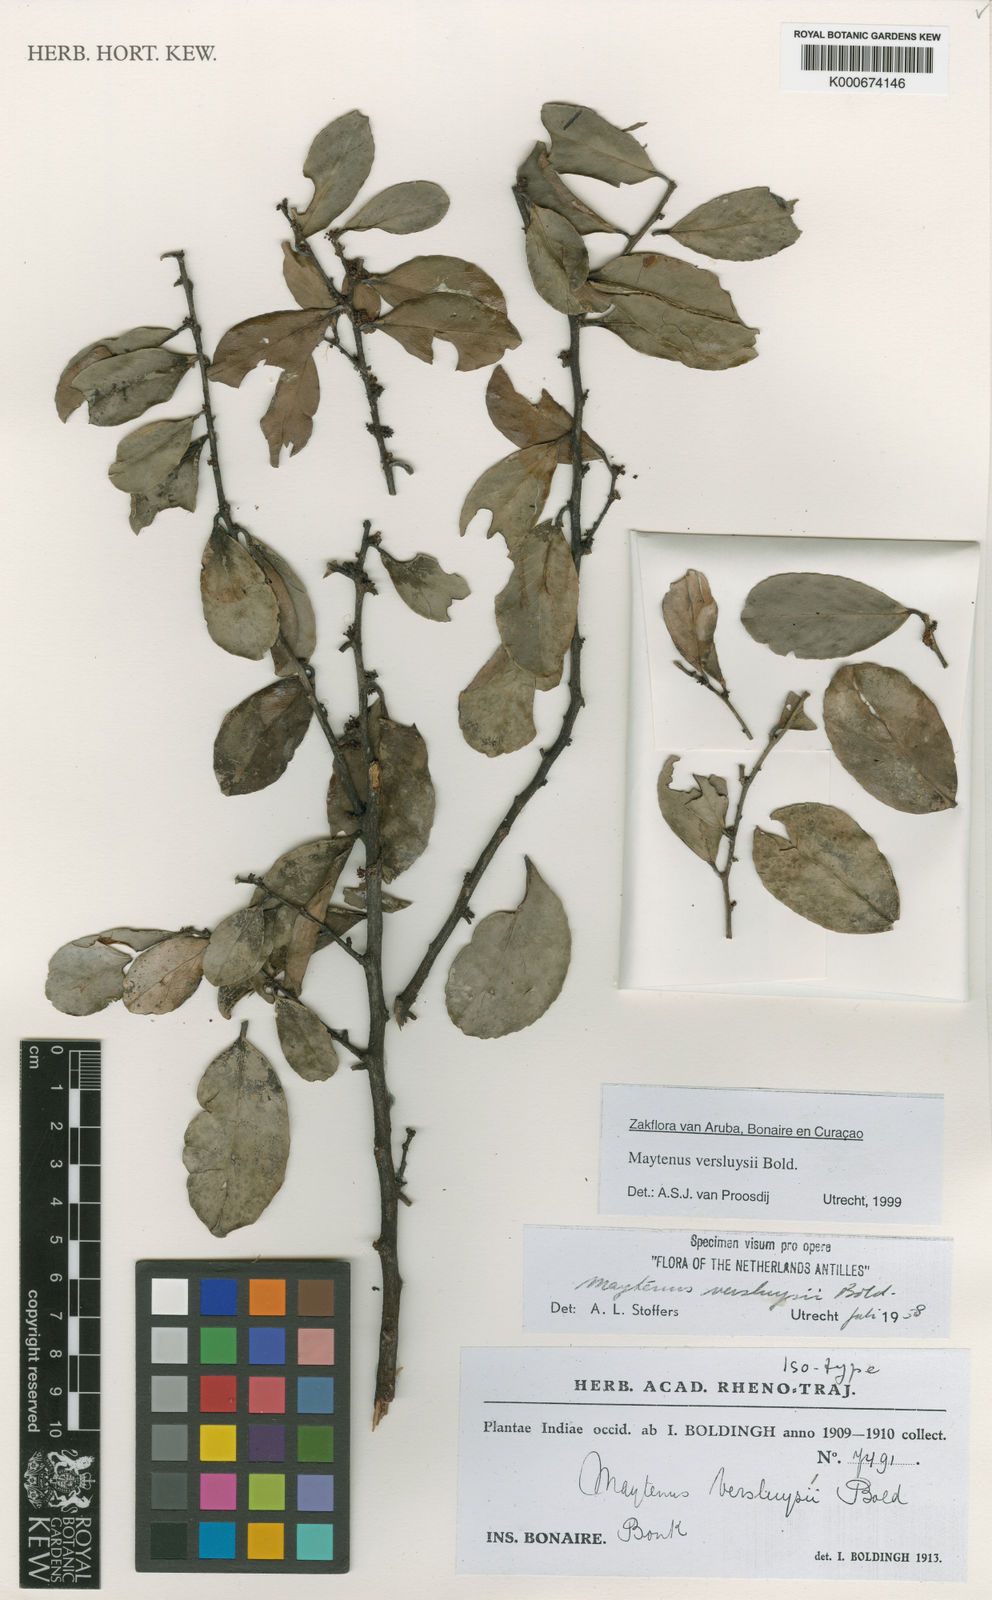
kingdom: Plantae
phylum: Tracheophyta
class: Magnoliopsida
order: Celastrales
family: Celastraceae
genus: Monteverdia
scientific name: Monteverdia versluysii
